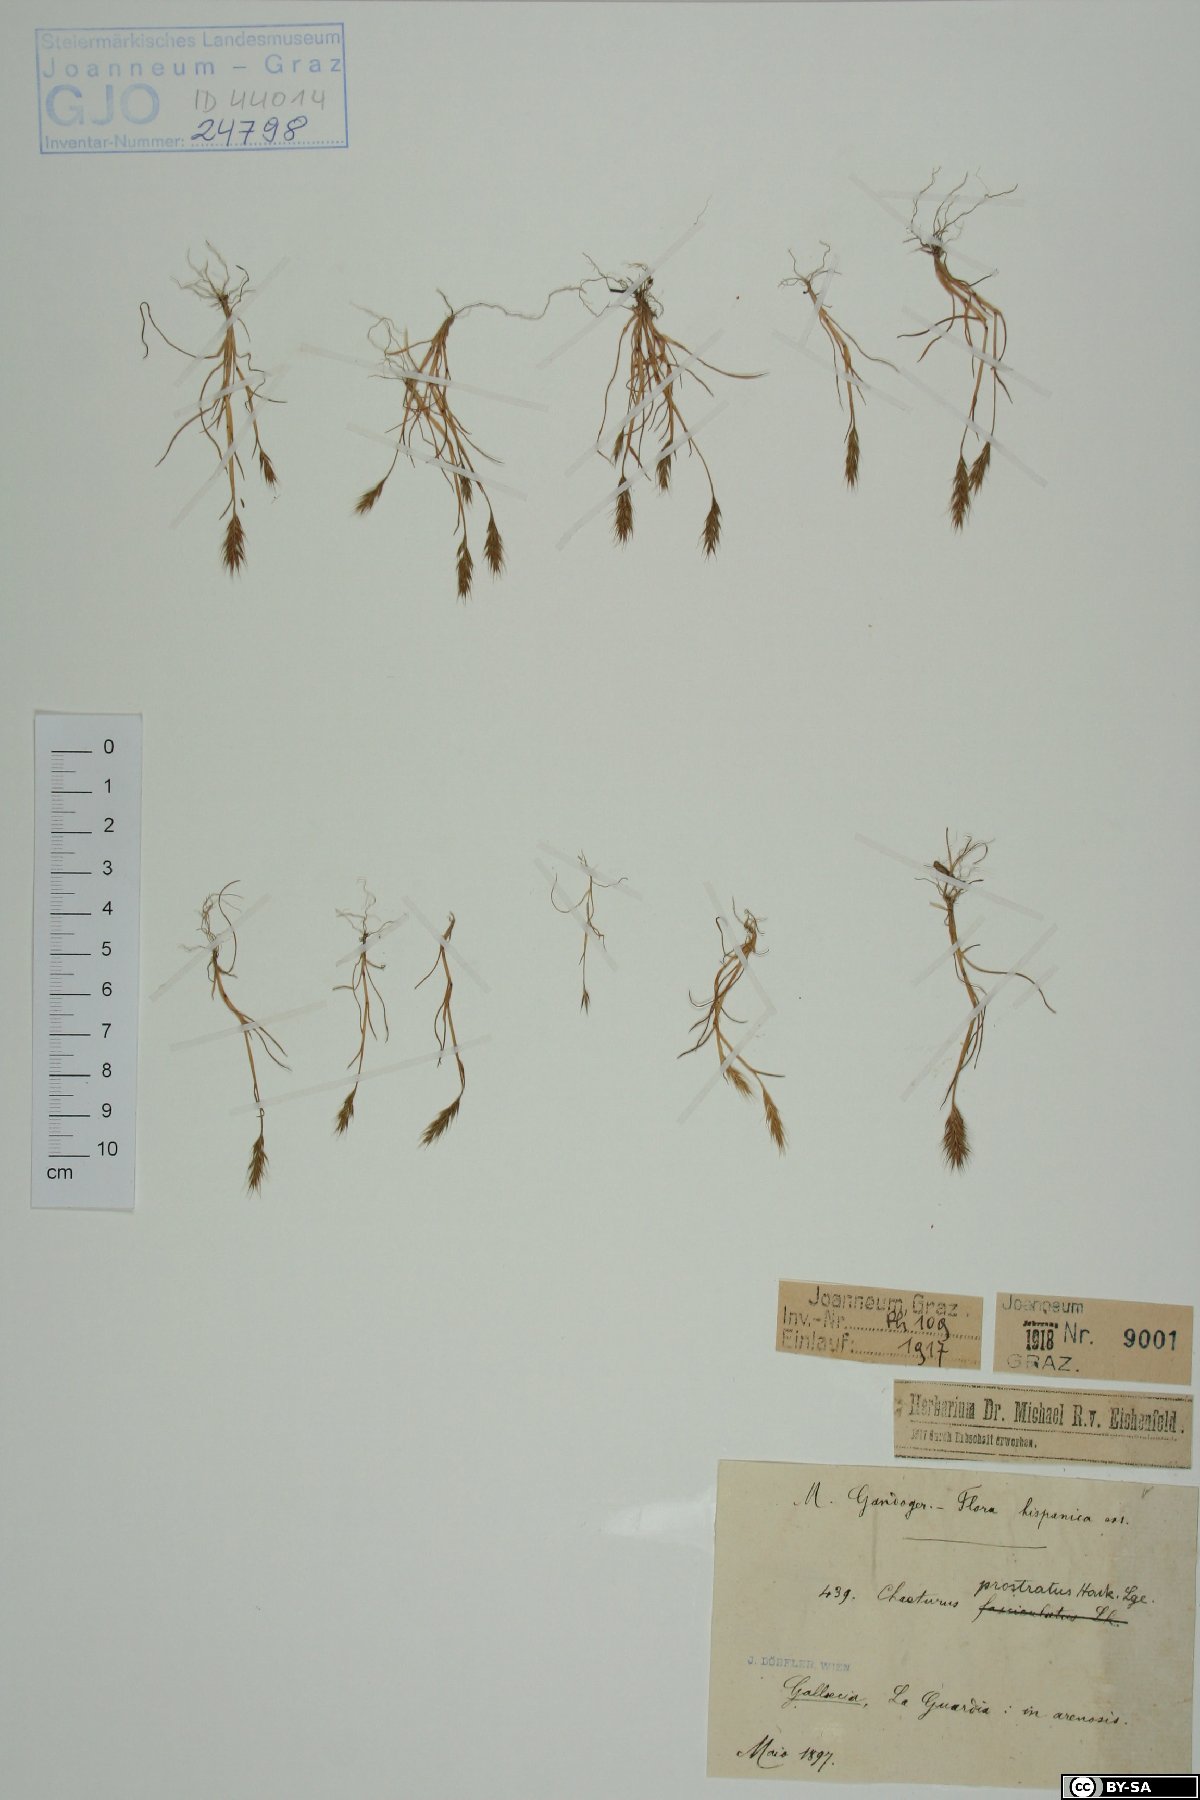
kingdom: Plantae
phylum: Tracheophyta
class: Liliopsida
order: Poales
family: Poaceae
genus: Agrostis
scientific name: Agrostis subspicata
